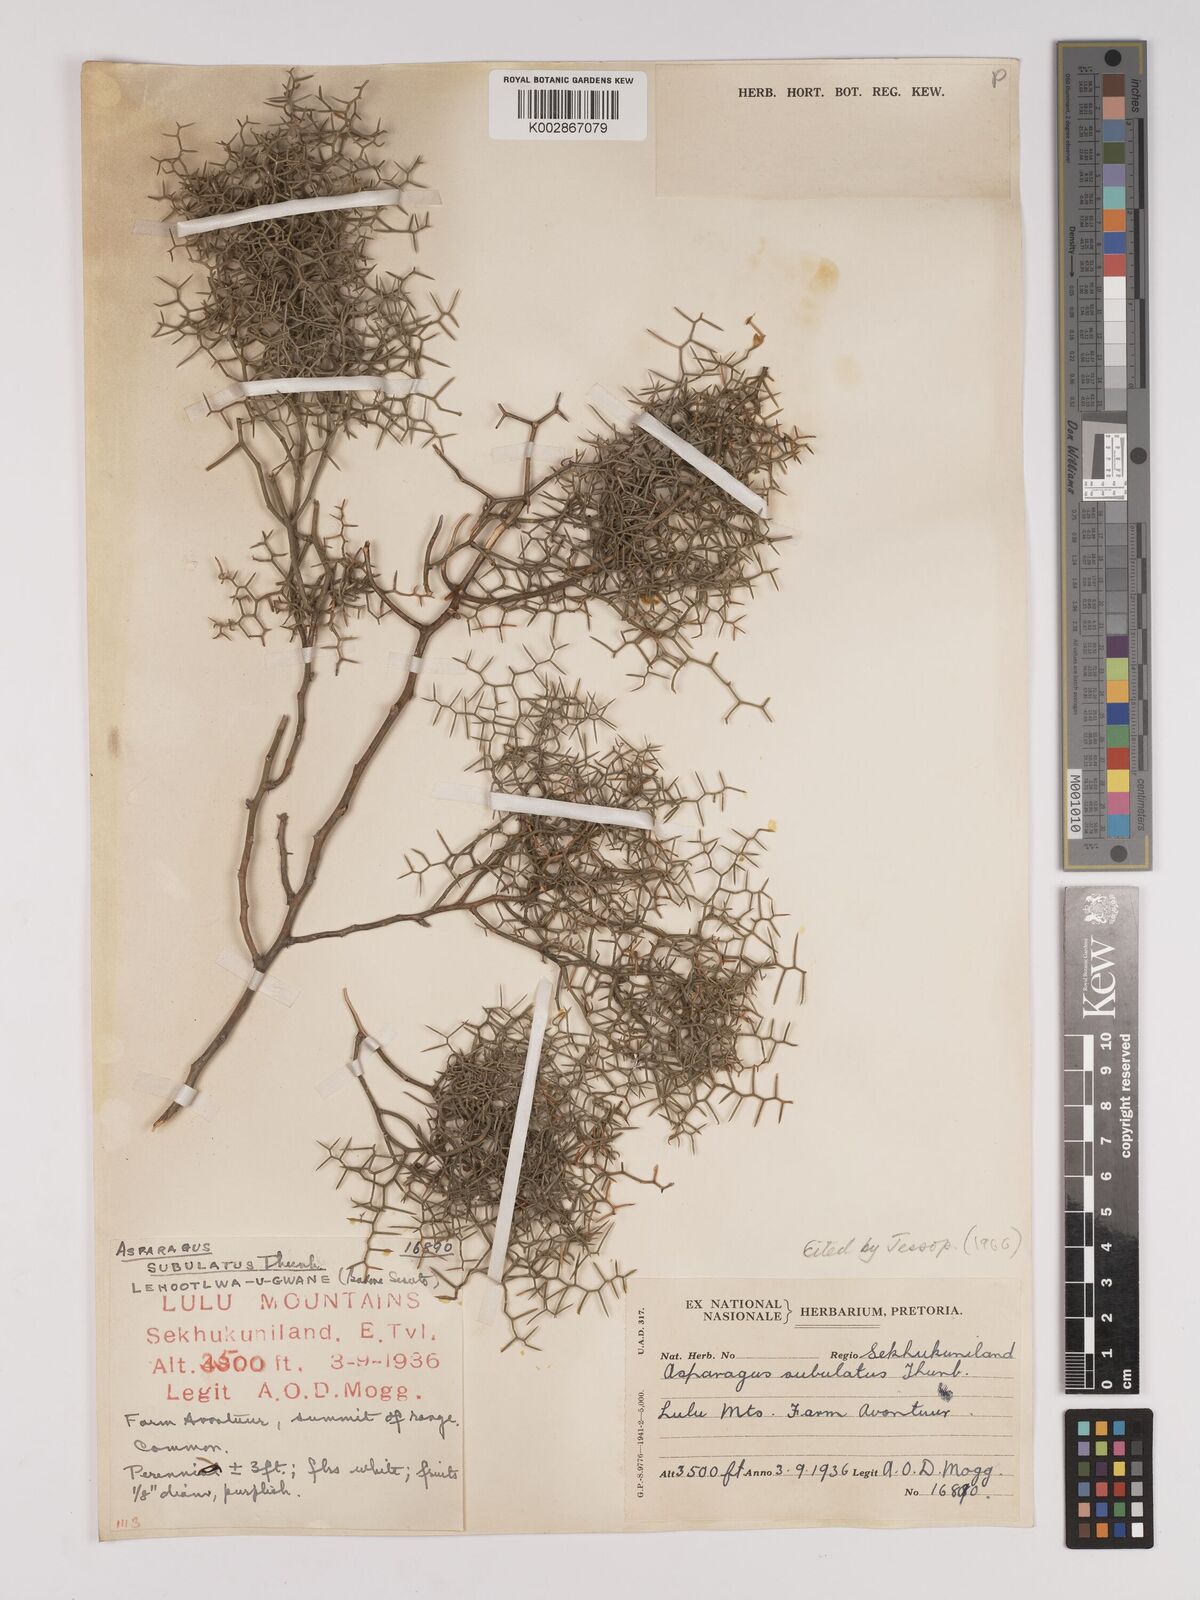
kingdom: Plantae
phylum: Tracheophyta
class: Liliopsida
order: Asparagales
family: Asparagaceae
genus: Asparagus
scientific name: Asparagus subulatus
